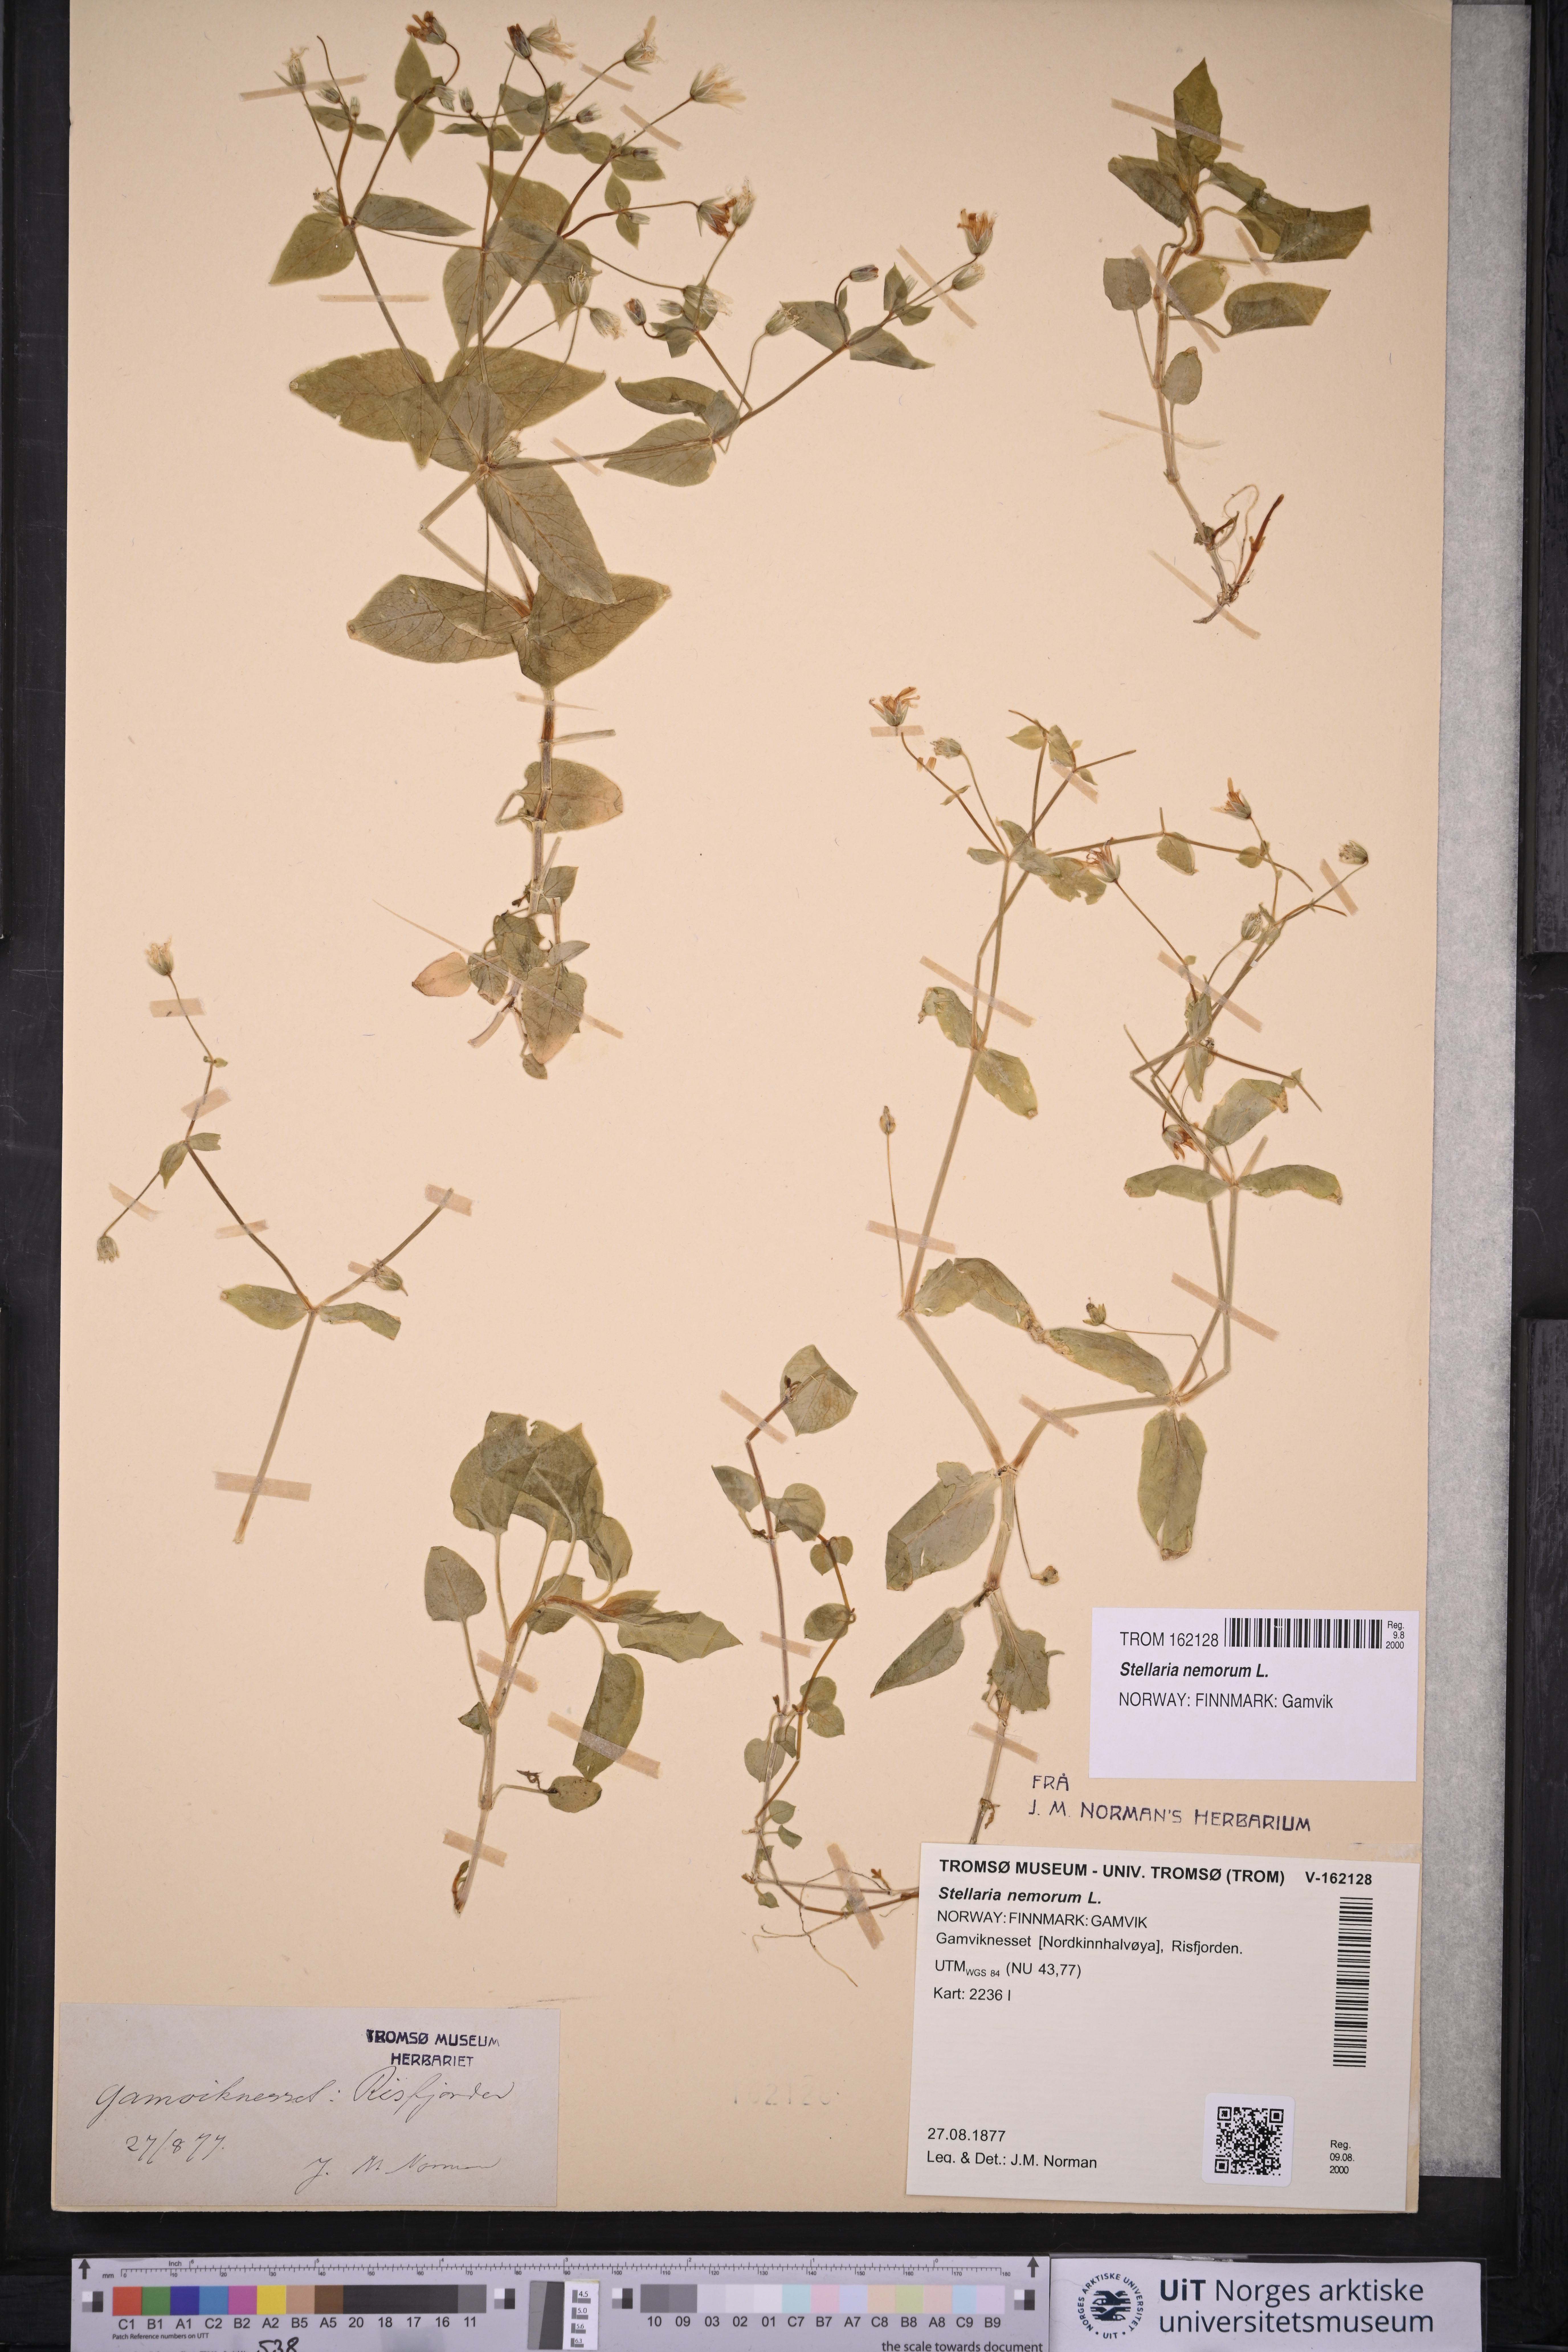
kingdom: Plantae
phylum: Tracheophyta
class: Magnoliopsida
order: Caryophyllales
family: Caryophyllaceae
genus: Stellaria
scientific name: Stellaria nemorum
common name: Wood stitchwort
